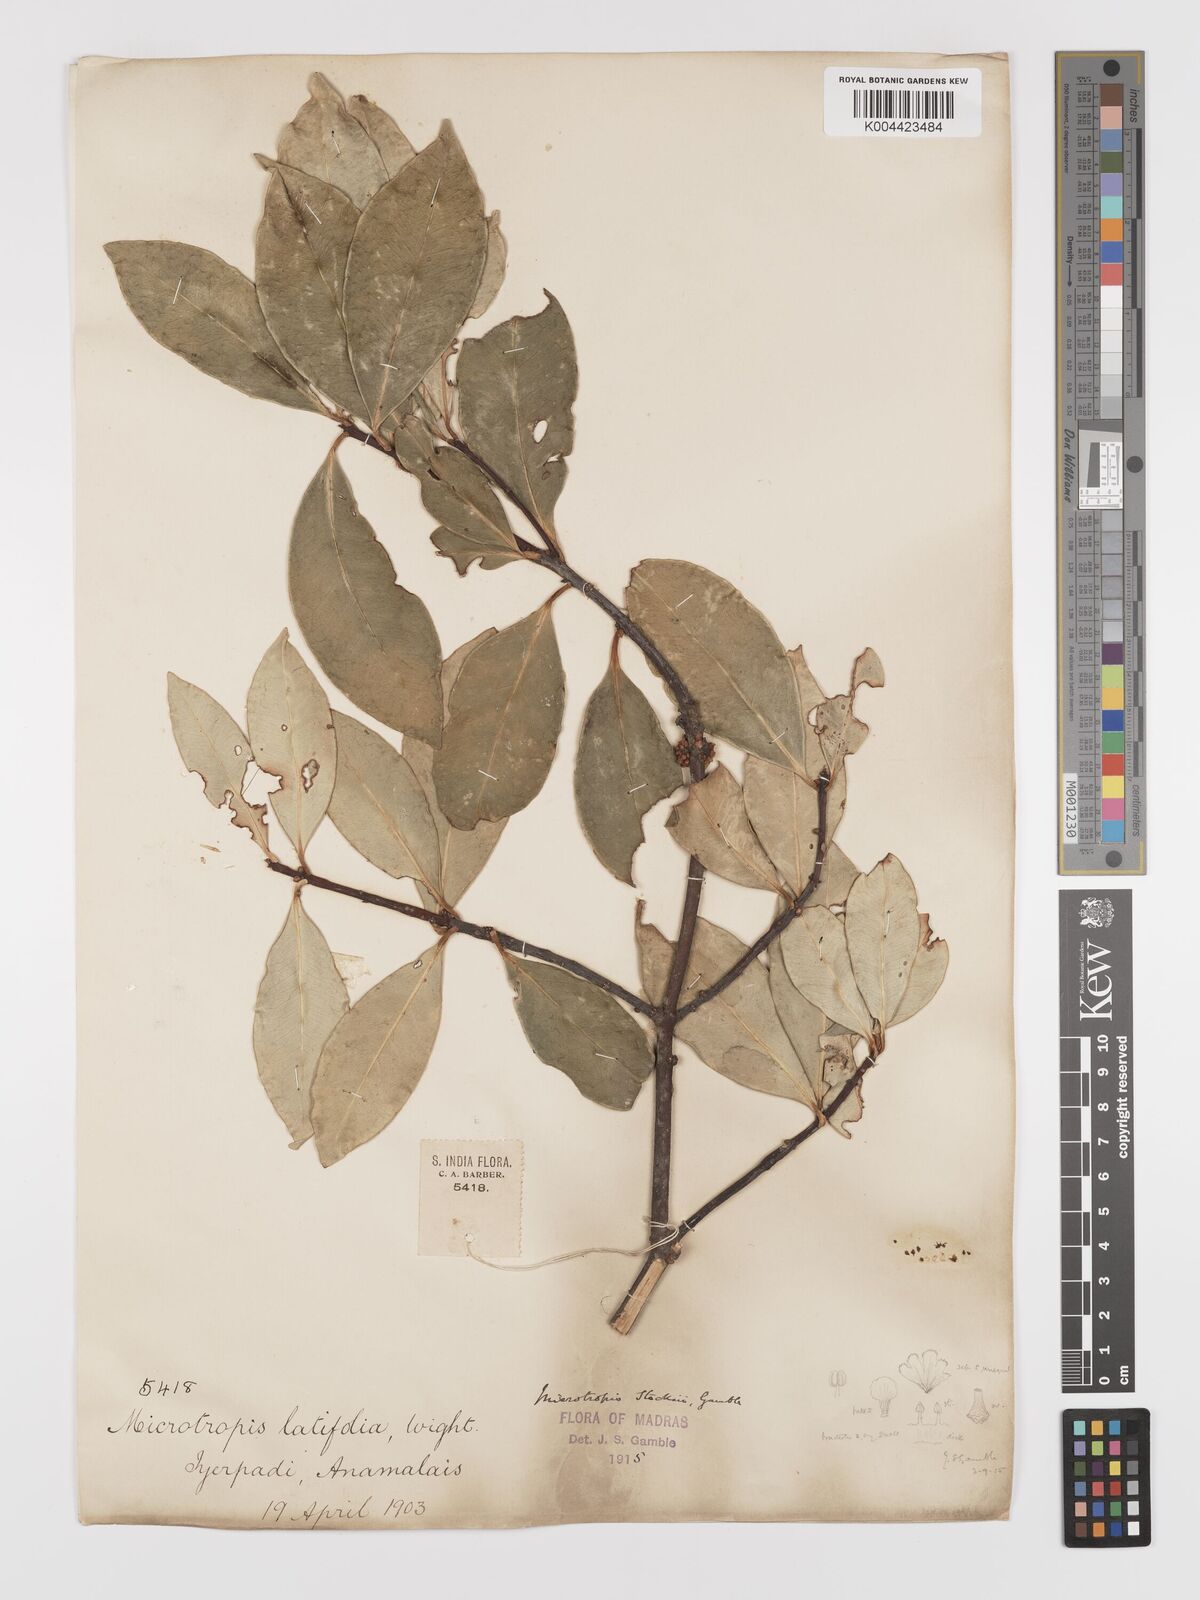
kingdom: Plantae
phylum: Tracheophyta
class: Magnoliopsida
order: Celastrales
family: Celastraceae
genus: Microtropis
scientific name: Microtropis stocksii
